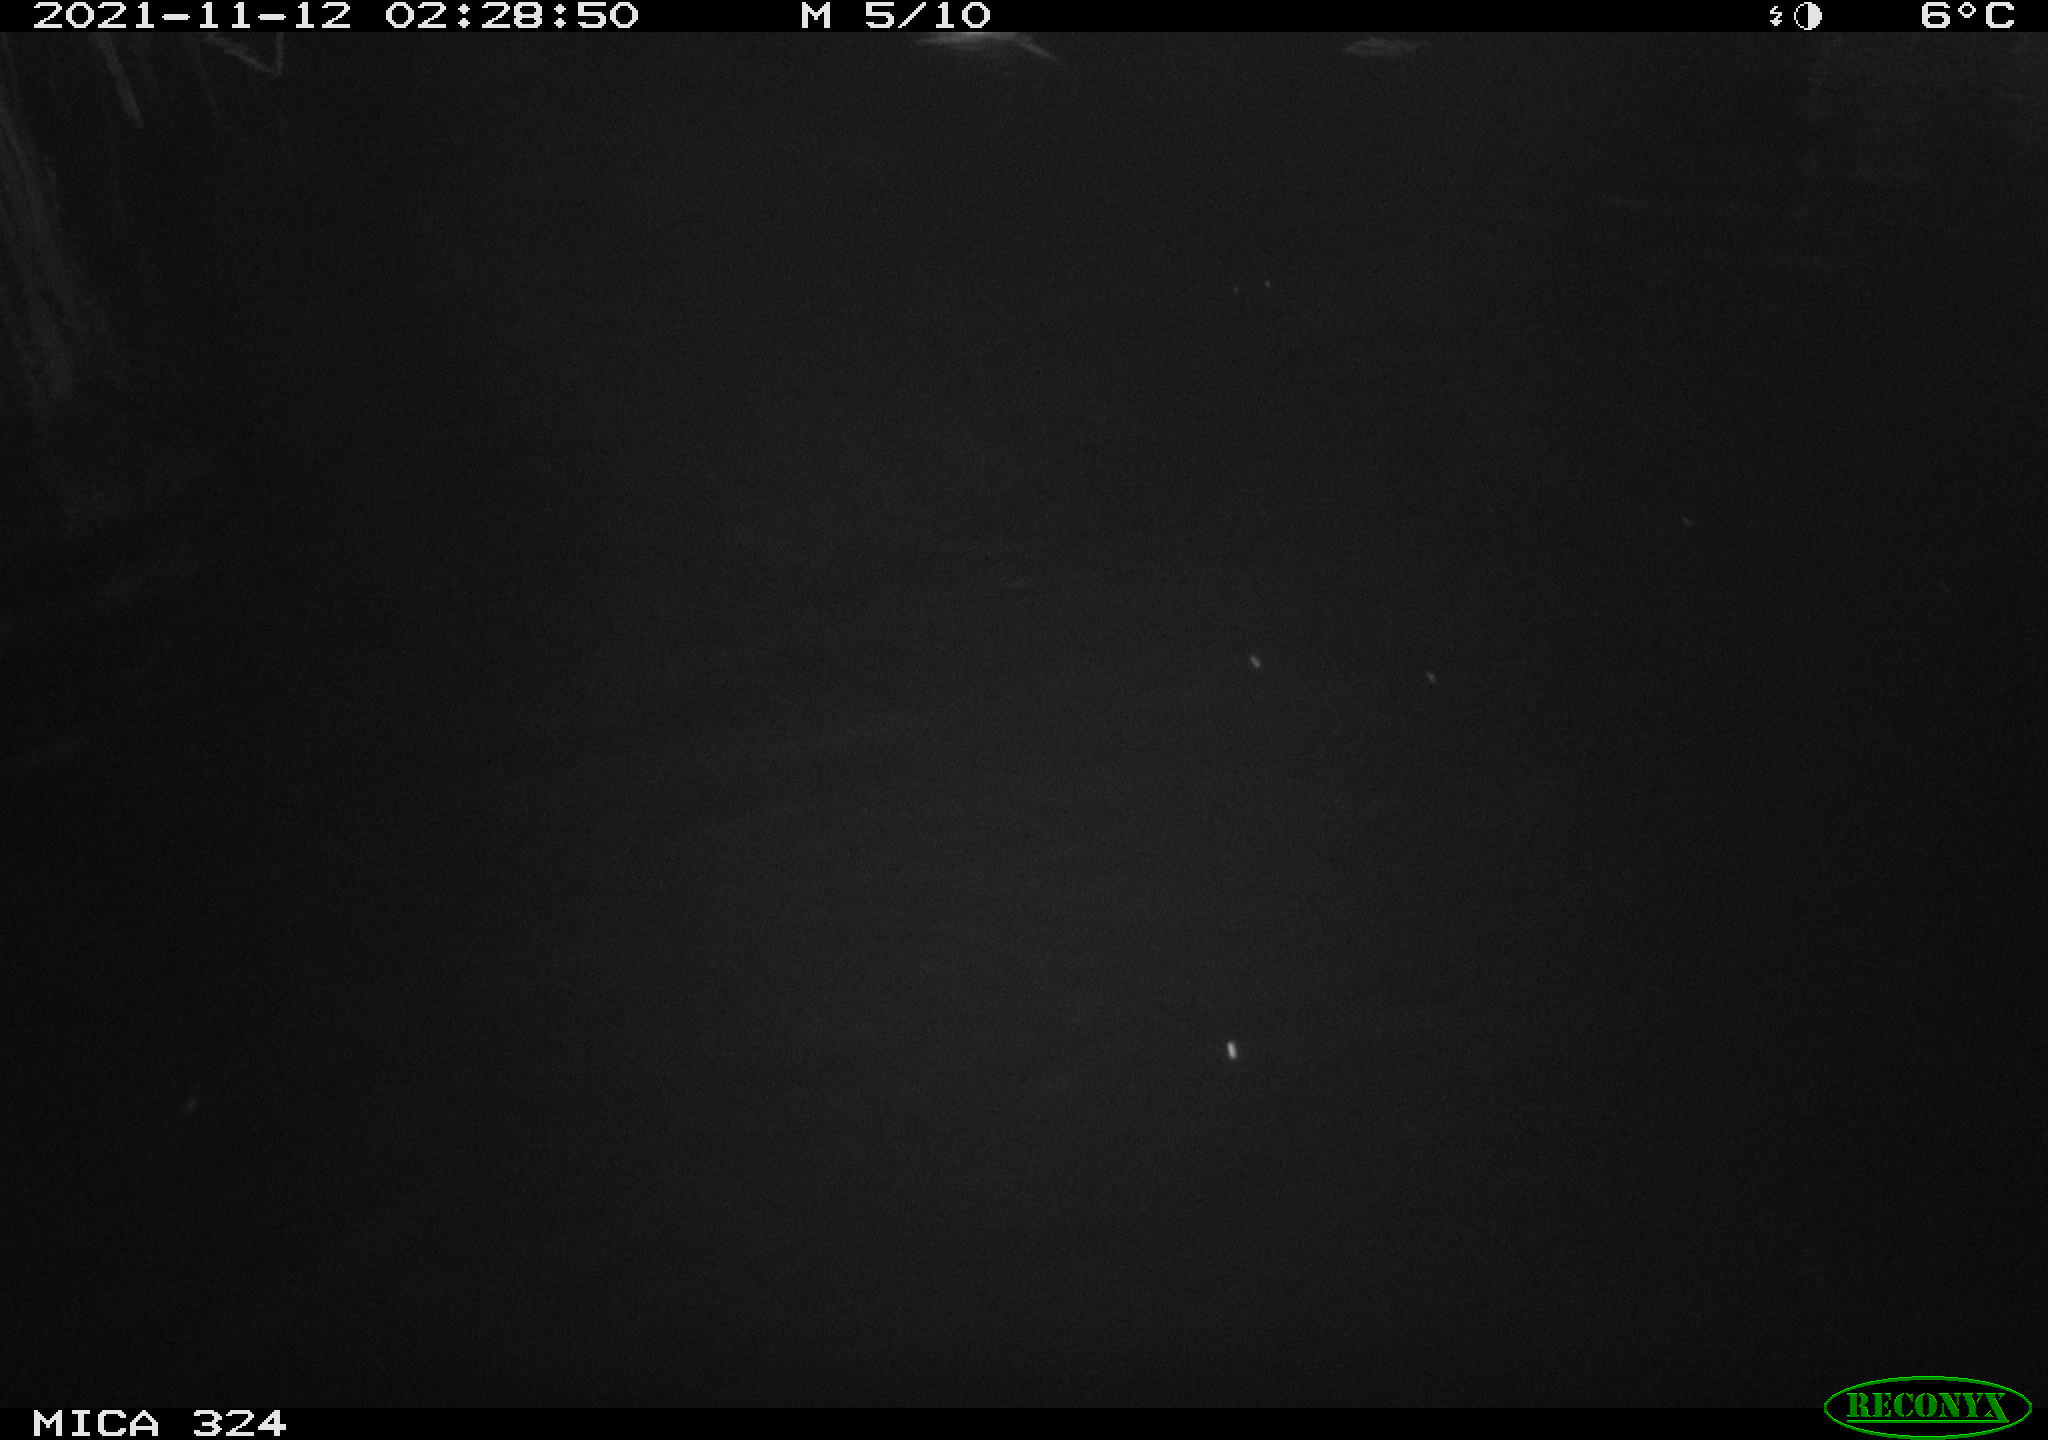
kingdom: Animalia
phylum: Chordata
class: Mammalia
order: Rodentia
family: Cricetidae
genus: Ondatra
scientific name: Ondatra zibethicus
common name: Muskrat
